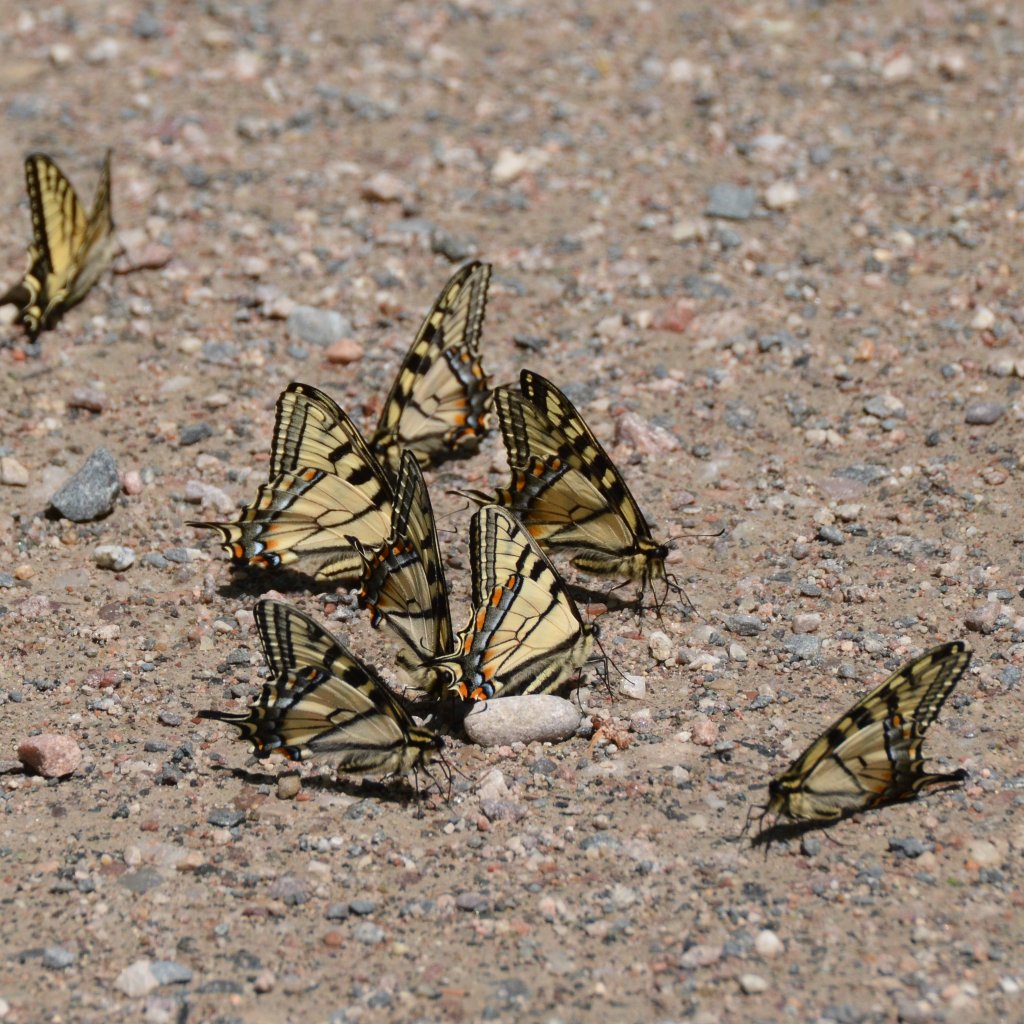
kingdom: Animalia
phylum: Arthropoda
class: Insecta
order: Lepidoptera
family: Papilionidae
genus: Pterourus
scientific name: Pterourus canadensis
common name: Canadian Tiger Swallowtail
